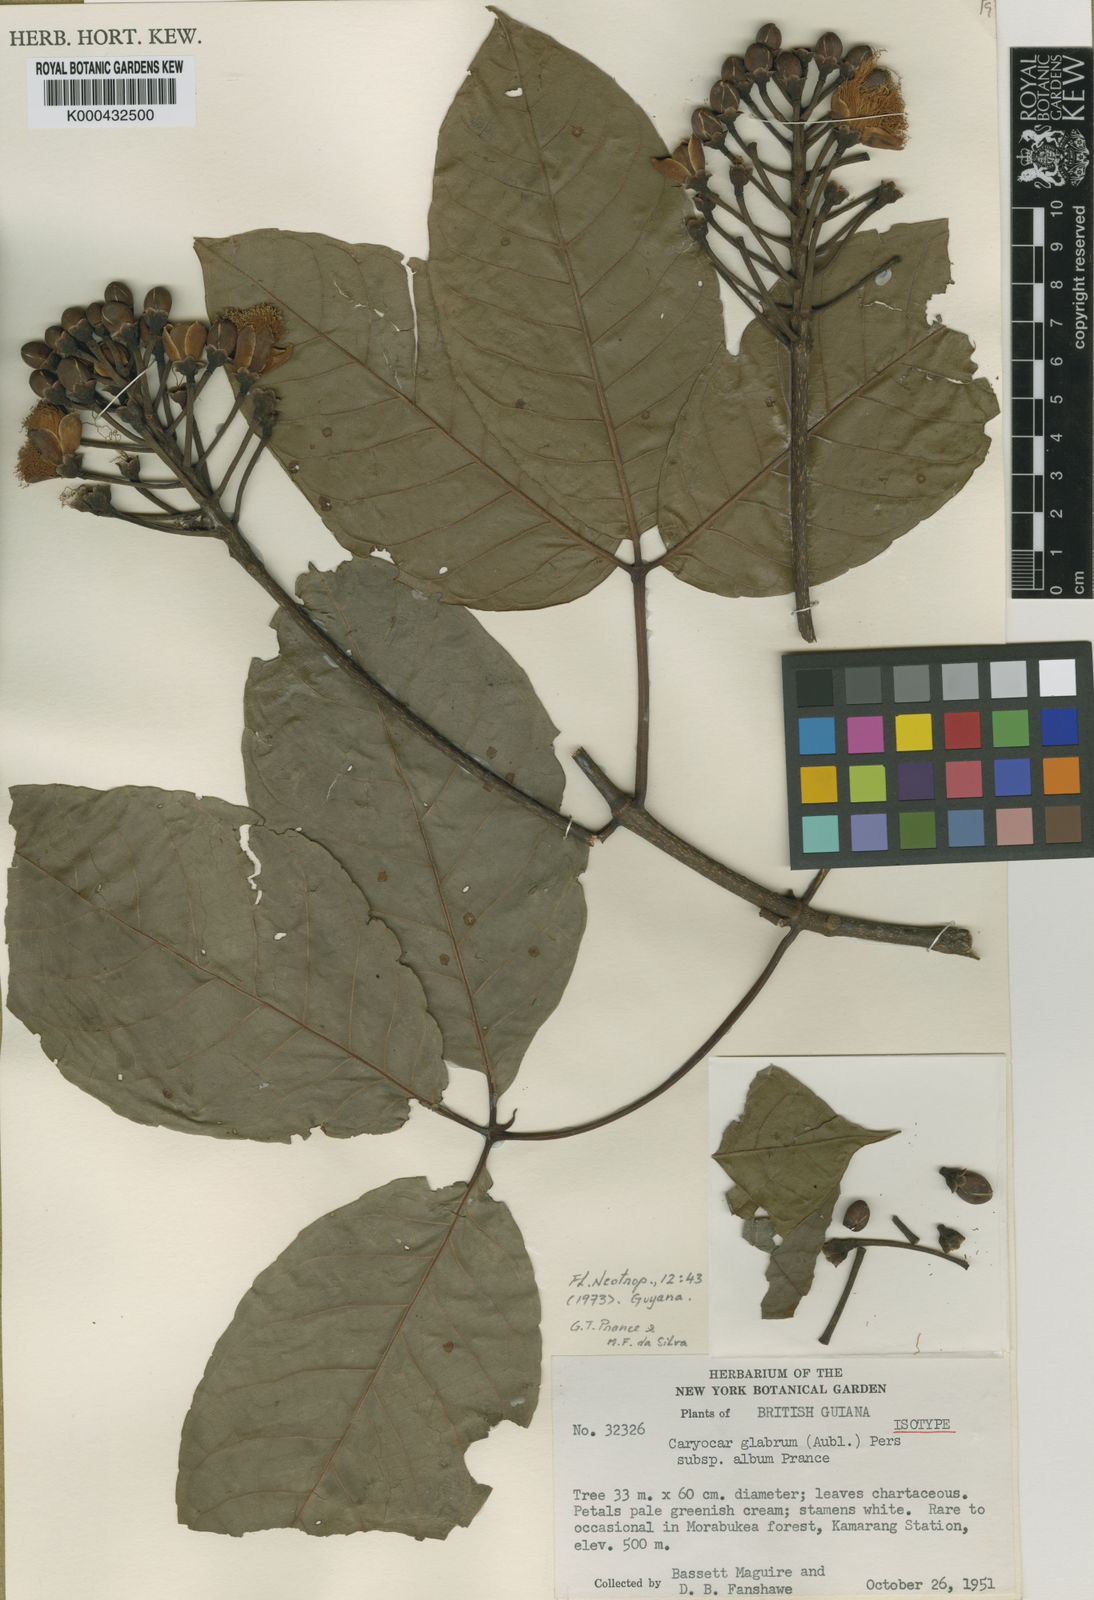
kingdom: Plantae
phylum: Tracheophyta
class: Magnoliopsida
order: Malpighiales
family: Caryocaraceae
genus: Caryocar
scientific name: Caryocar glabrum
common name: Bat's souari
